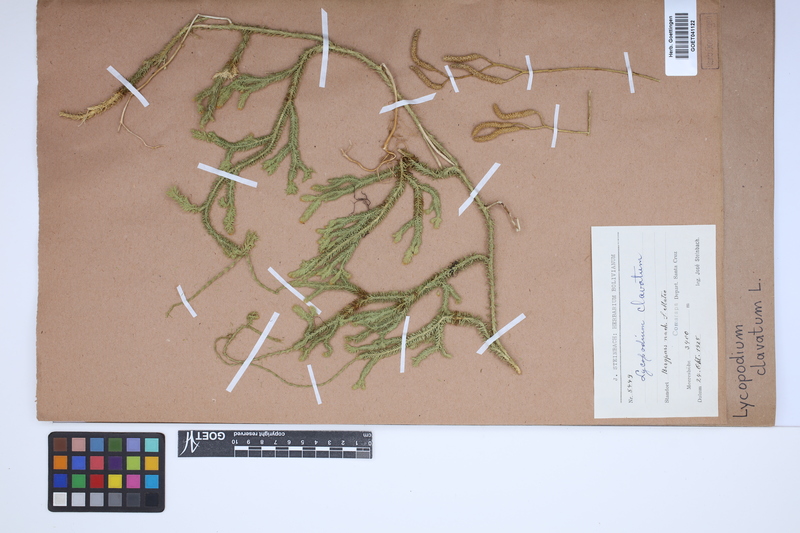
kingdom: Plantae
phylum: Tracheophyta
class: Lycopodiopsida
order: Lycopodiales
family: Lycopodiaceae
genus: Lycopodium
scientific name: Lycopodium clavatum
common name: Stag's-horn clubmoss
